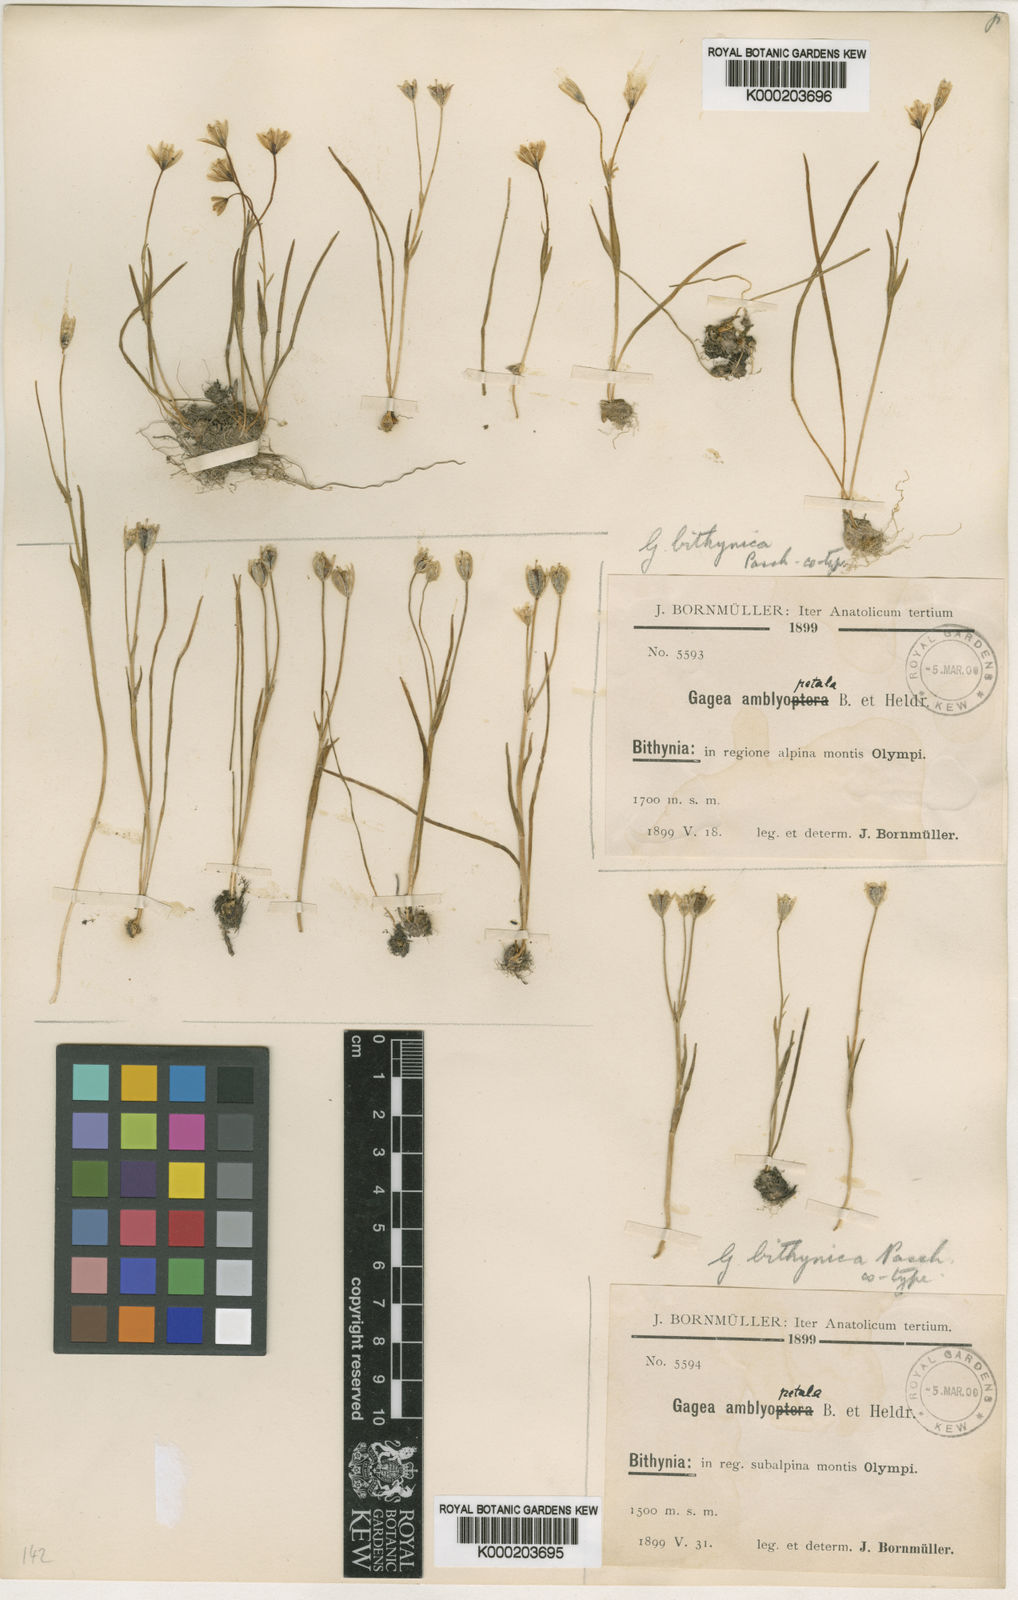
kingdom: Plantae
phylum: Tracheophyta
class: Liliopsida
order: Liliales
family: Liliaceae
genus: Gagea
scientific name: Gagea bithynica
